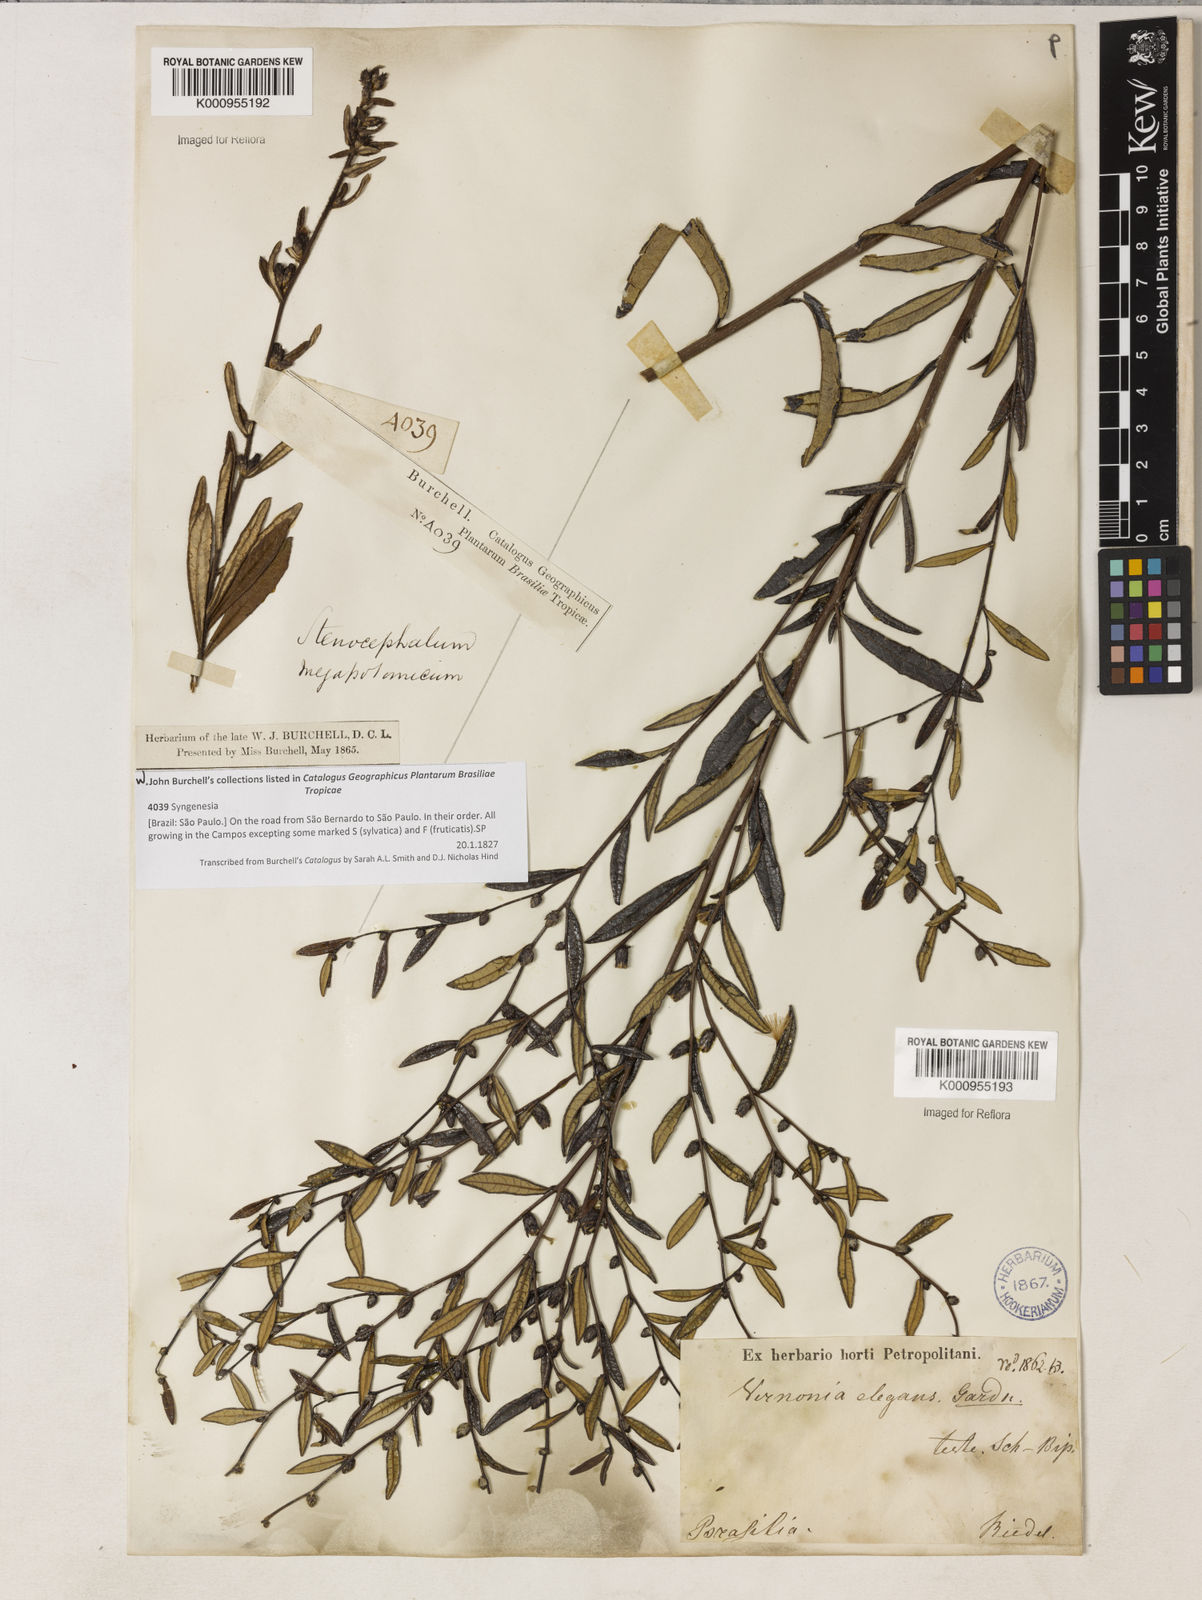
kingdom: Plantae
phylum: Tracheophyta
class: Magnoliopsida
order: Asterales
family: Asteraceae
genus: Lessingianthus
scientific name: Lessingianthus elegans
